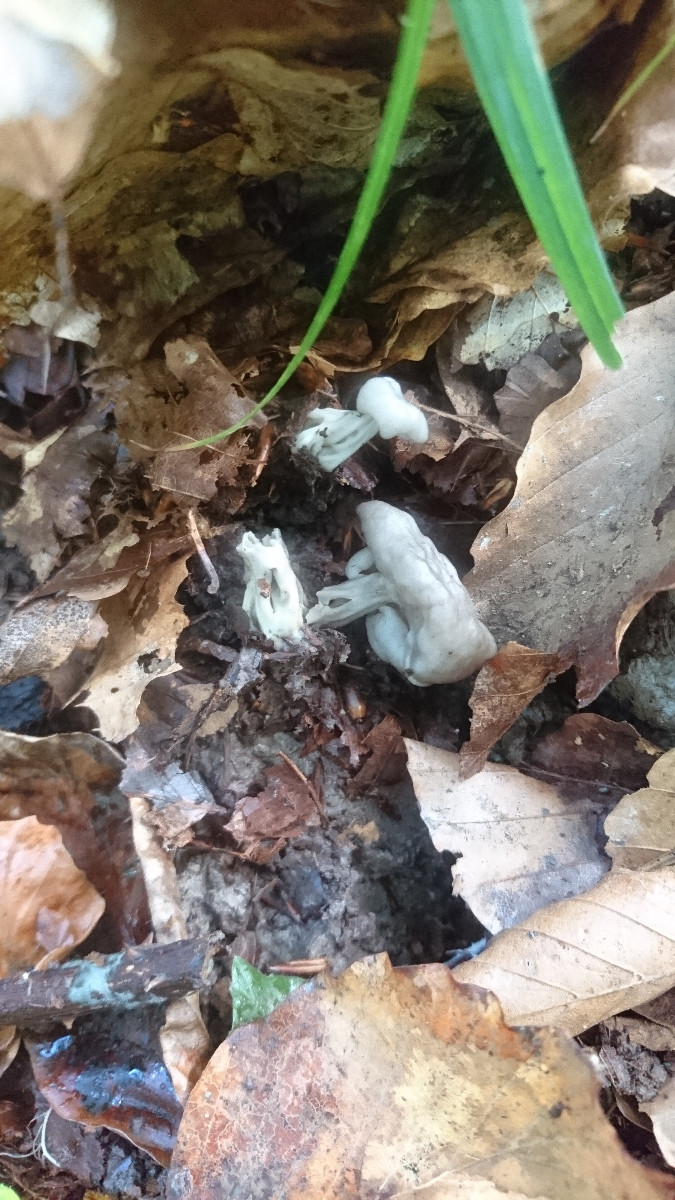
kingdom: Fungi
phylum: Ascomycota
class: Pezizomycetes
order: Pezizales
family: Helvellaceae
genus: Helvella
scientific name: Helvella crispa
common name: kruset foldhat
